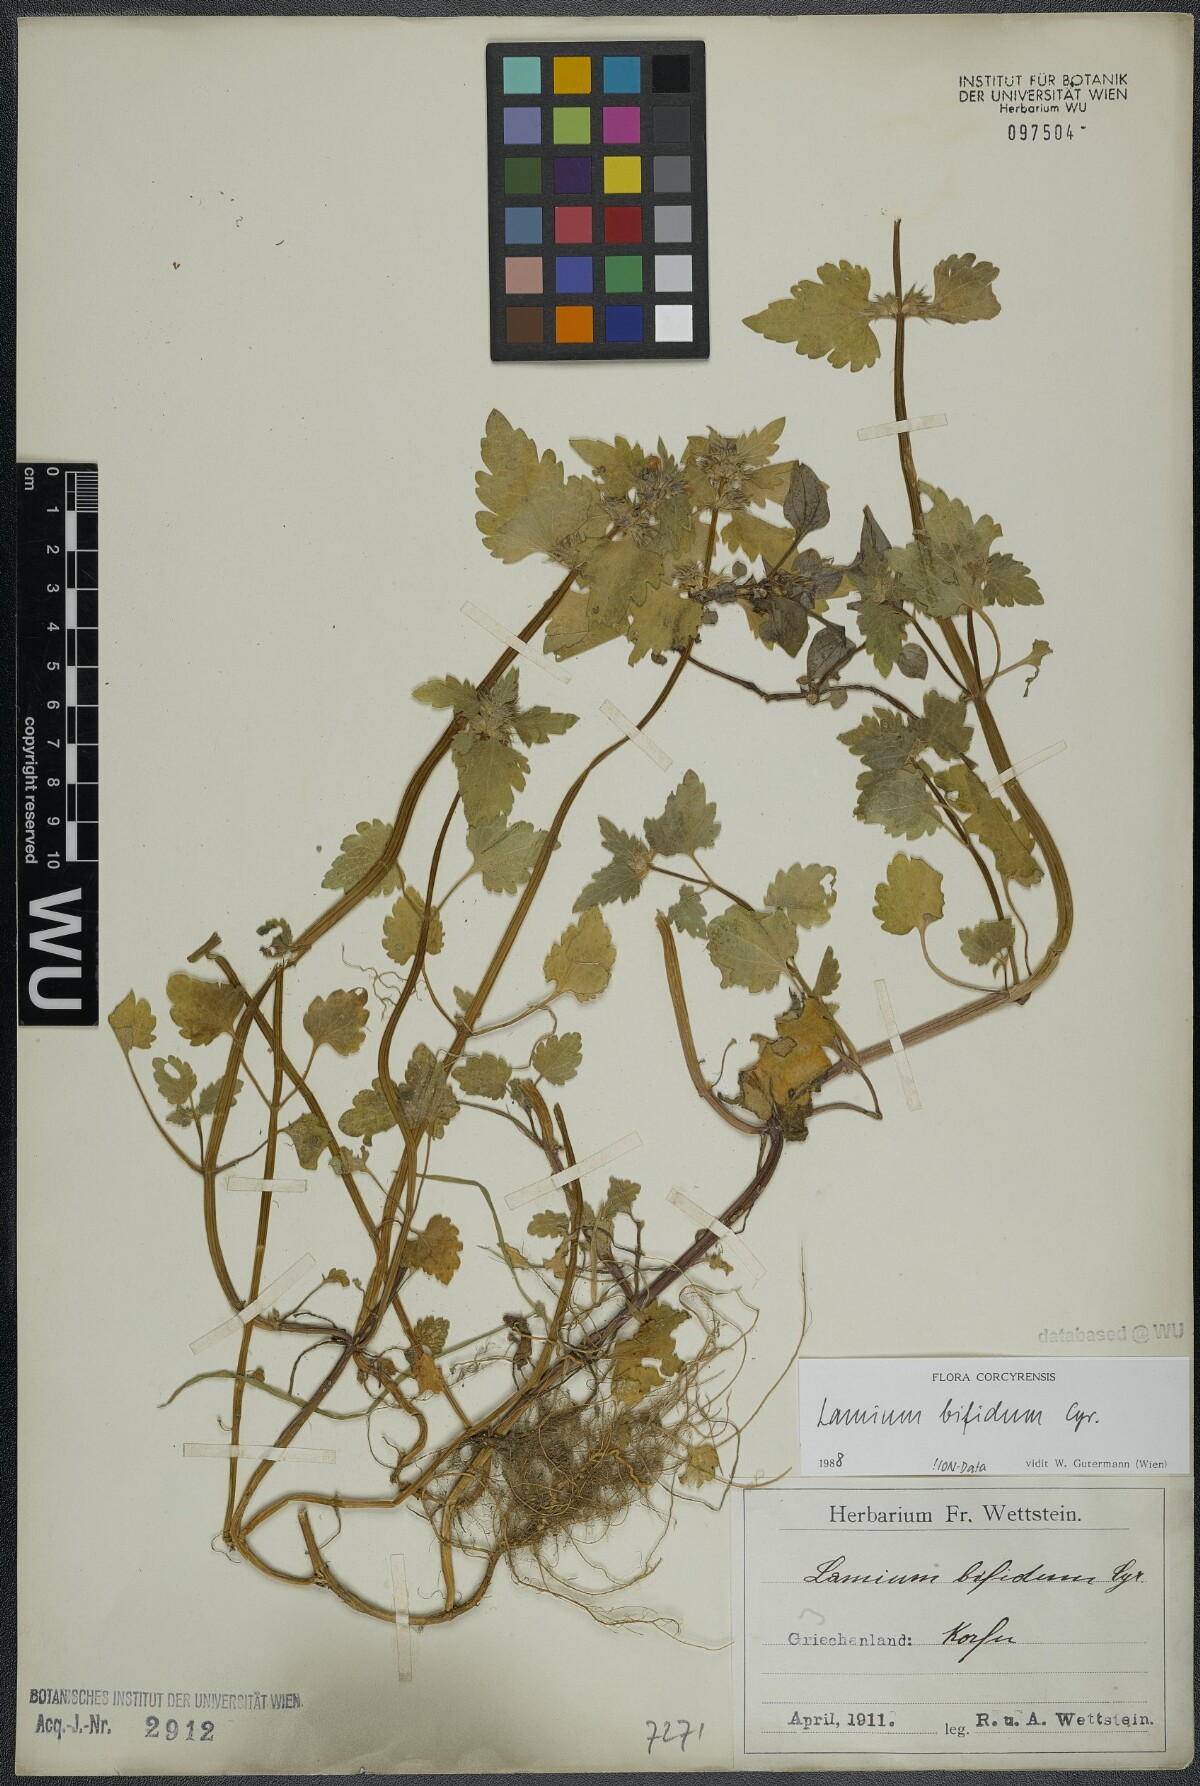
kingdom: Plantae
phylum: Tracheophyta
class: Magnoliopsida
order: Lamiales
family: Lamiaceae
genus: Lamium
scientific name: Lamium bifidum
